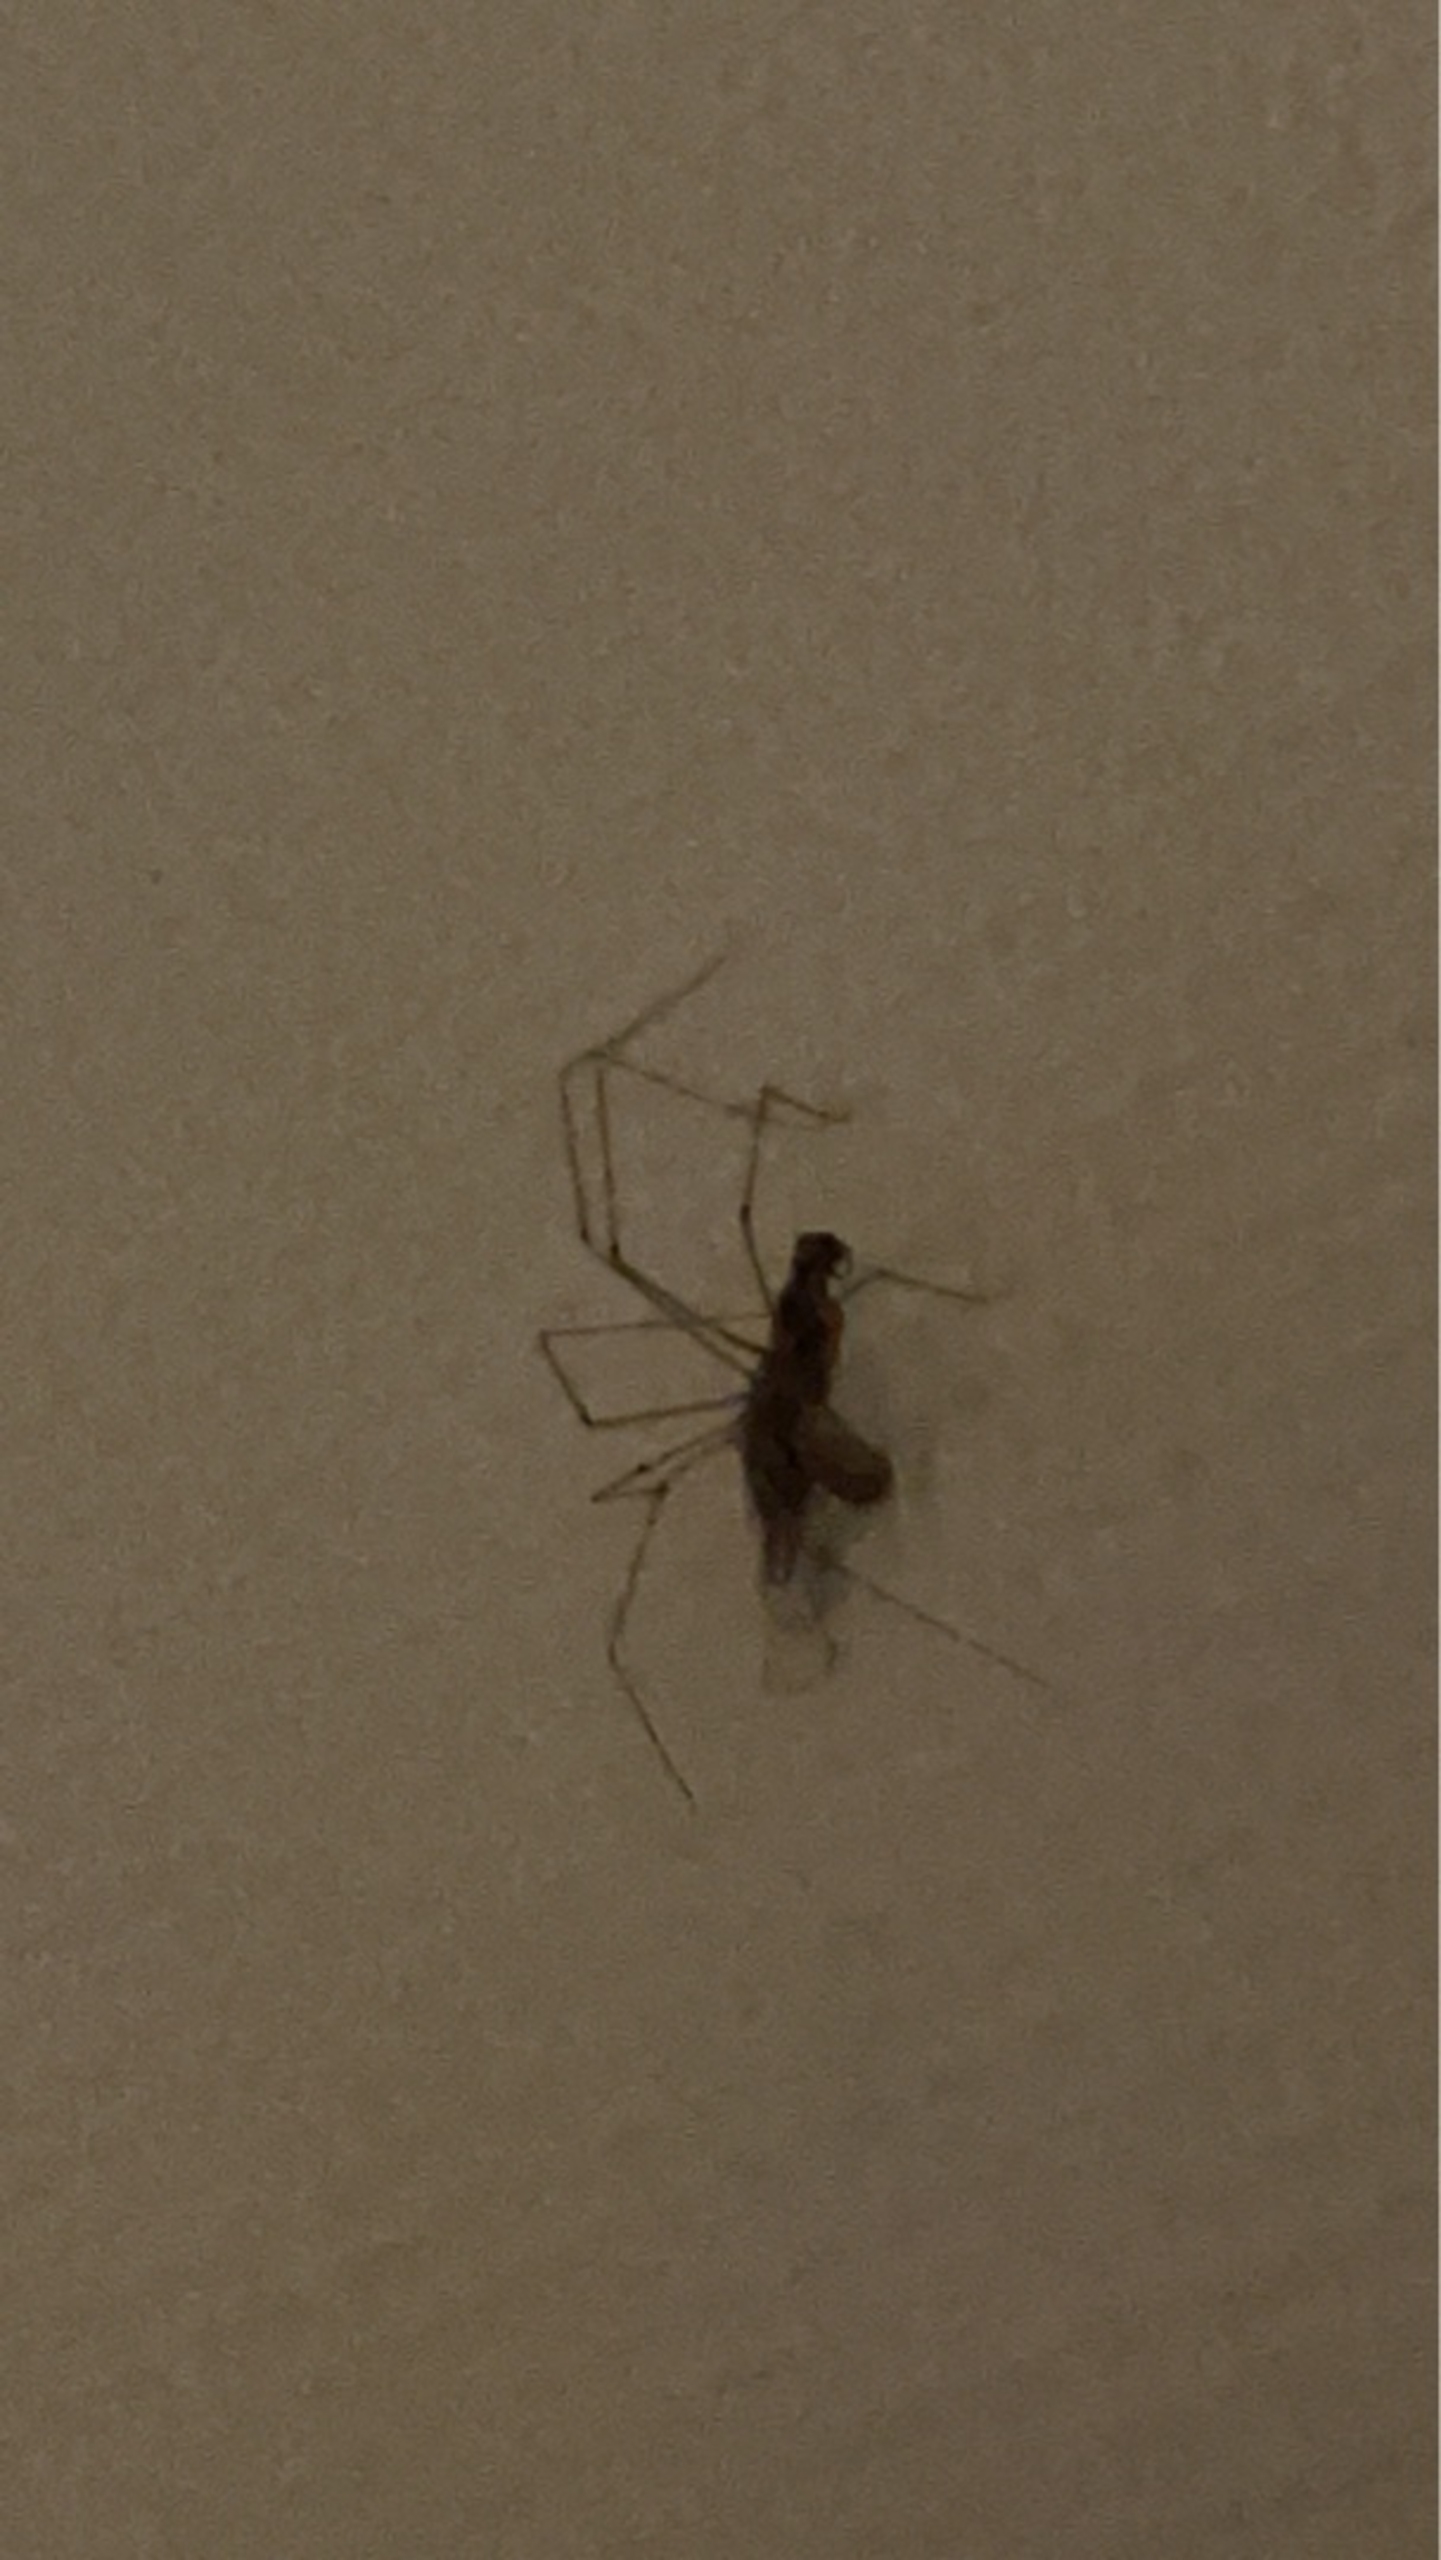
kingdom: Animalia
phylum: Arthropoda
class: Arachnida
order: Araneae
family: Pholcidae
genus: Pholcus
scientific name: Pholcus phalangioides
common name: Mejeredderkop
